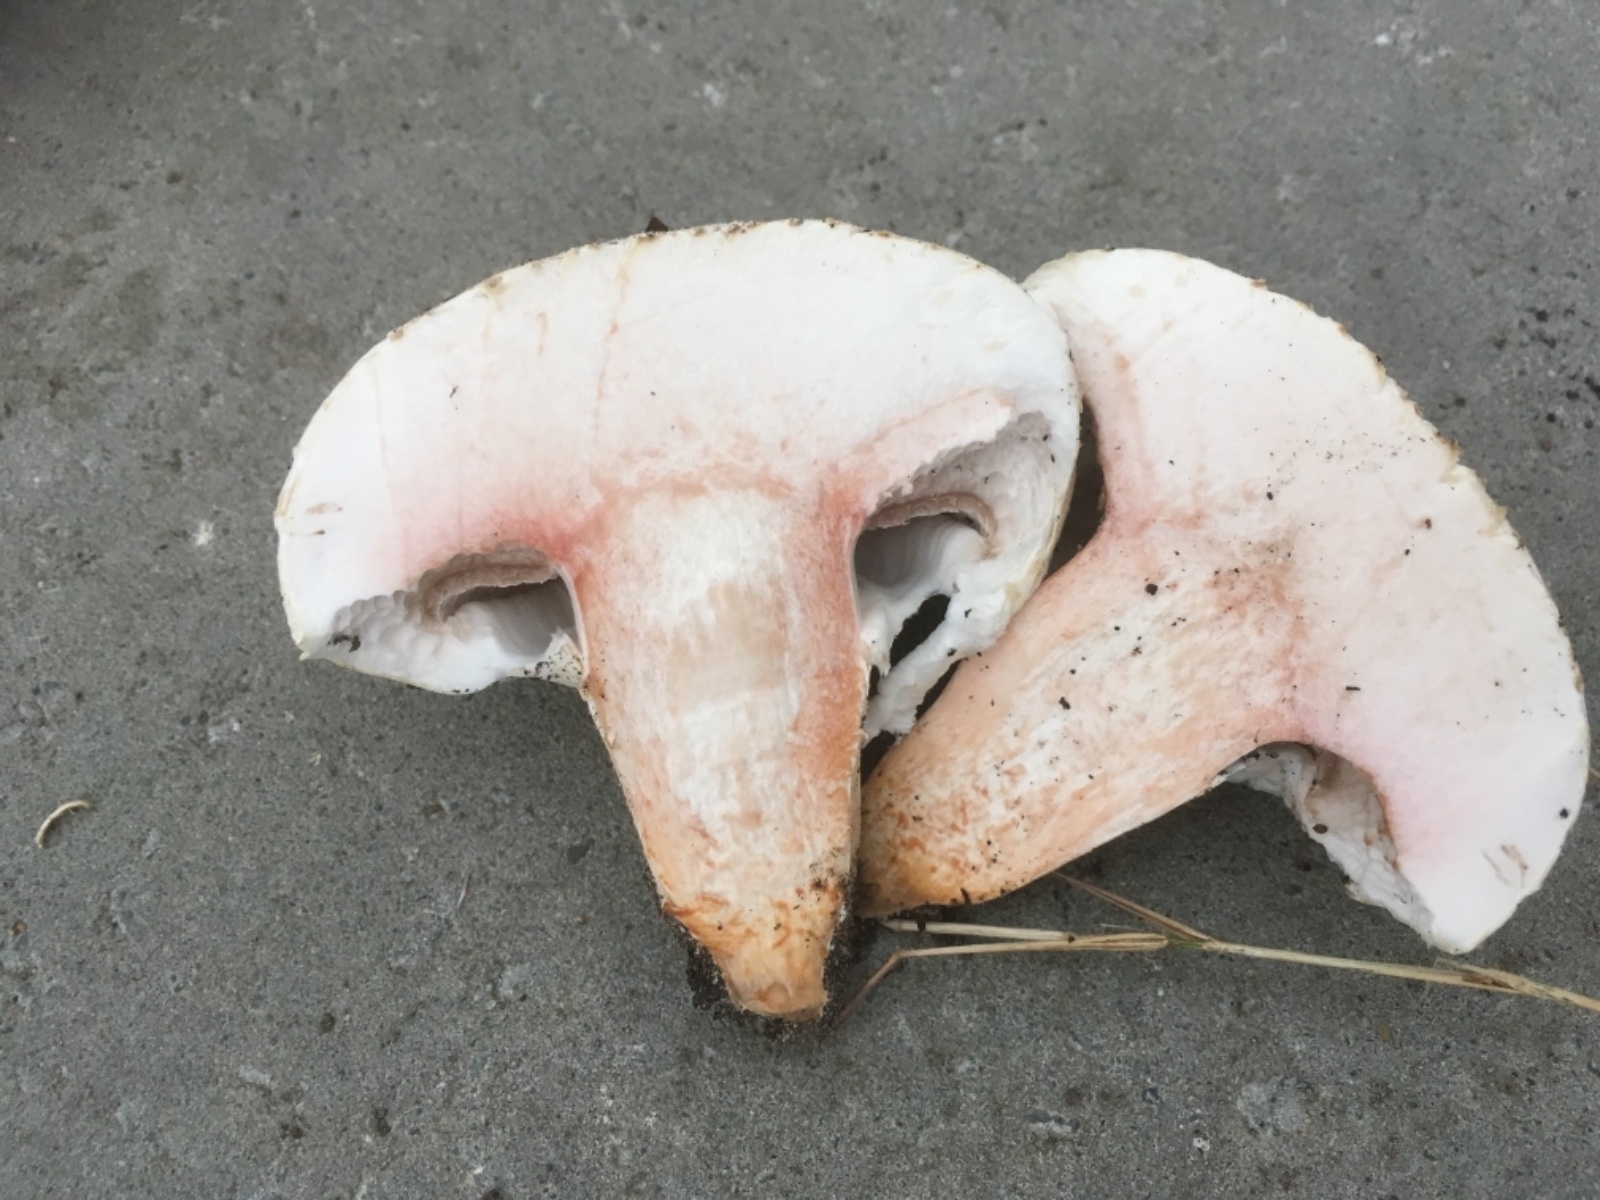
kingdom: Fungi
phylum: Basidiomycota
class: Agaricomycetes
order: Agaricales
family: Agaricaceae
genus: Agaricus
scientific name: Agaricus bernardii
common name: strandengs-champignon
